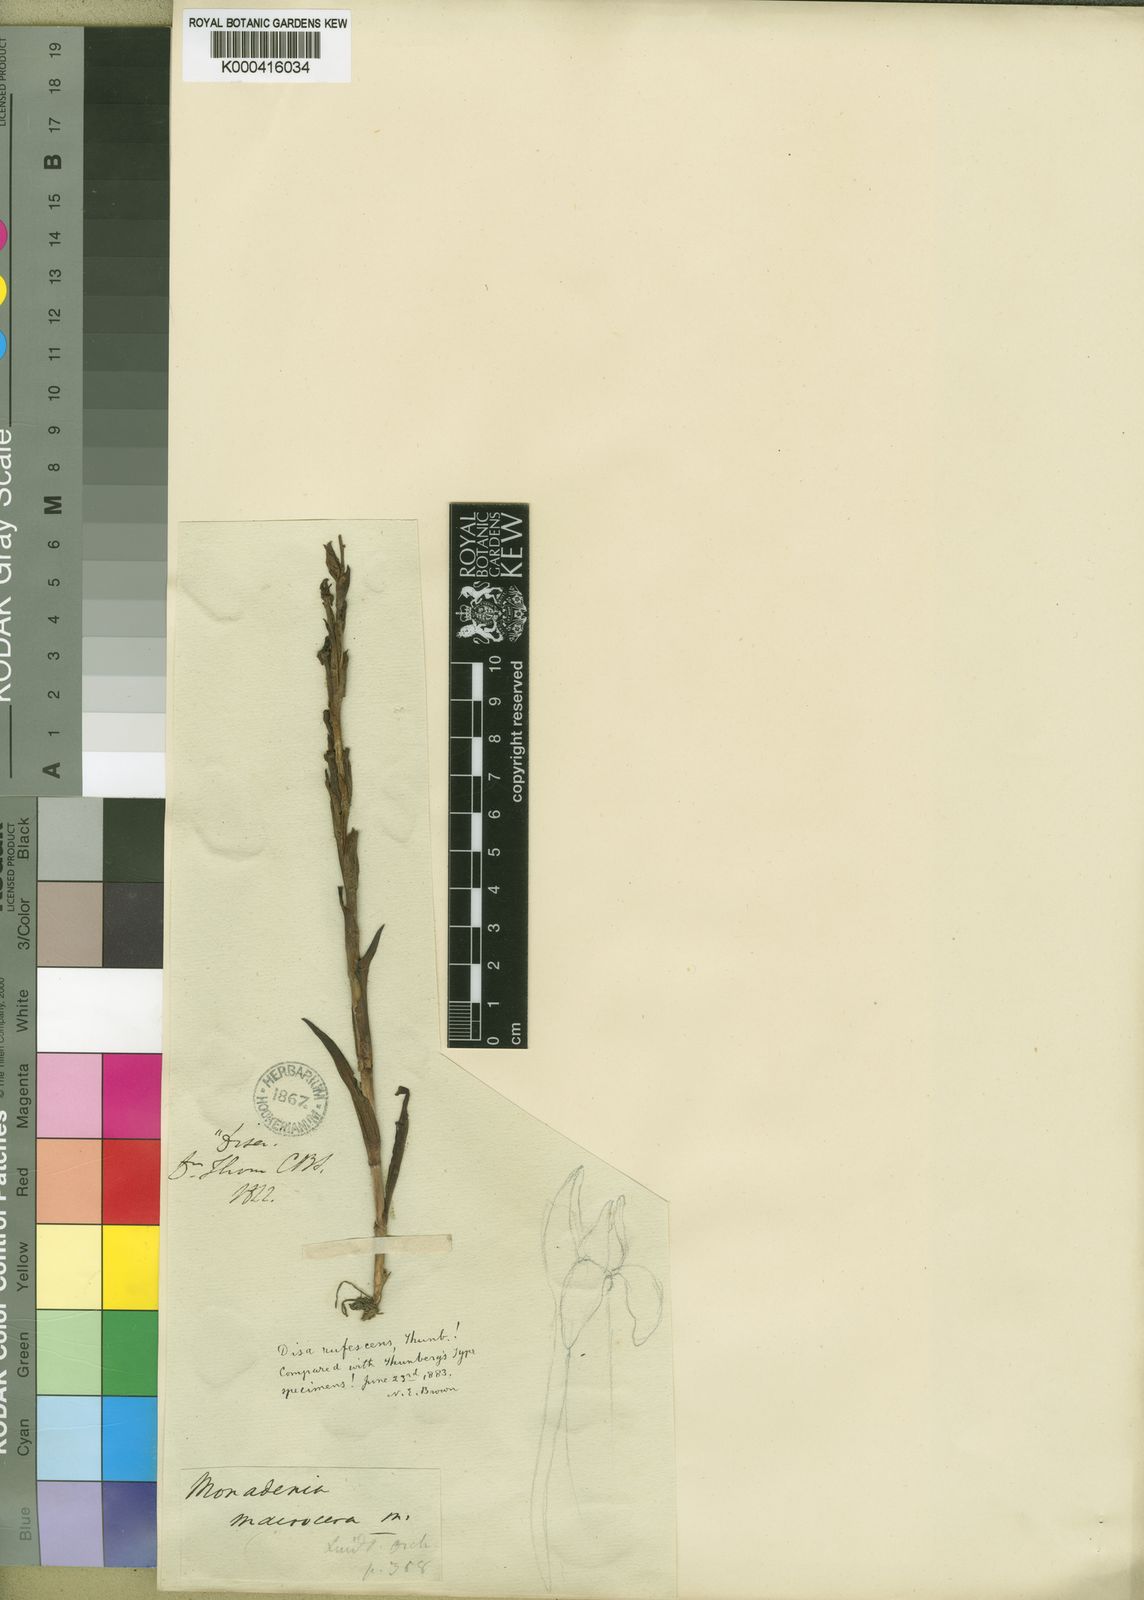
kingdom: Plantae
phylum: Tracheophyta
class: Liliopsida
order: Asparagales
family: Orchidaceae
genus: Disa
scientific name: Disa rufescens
